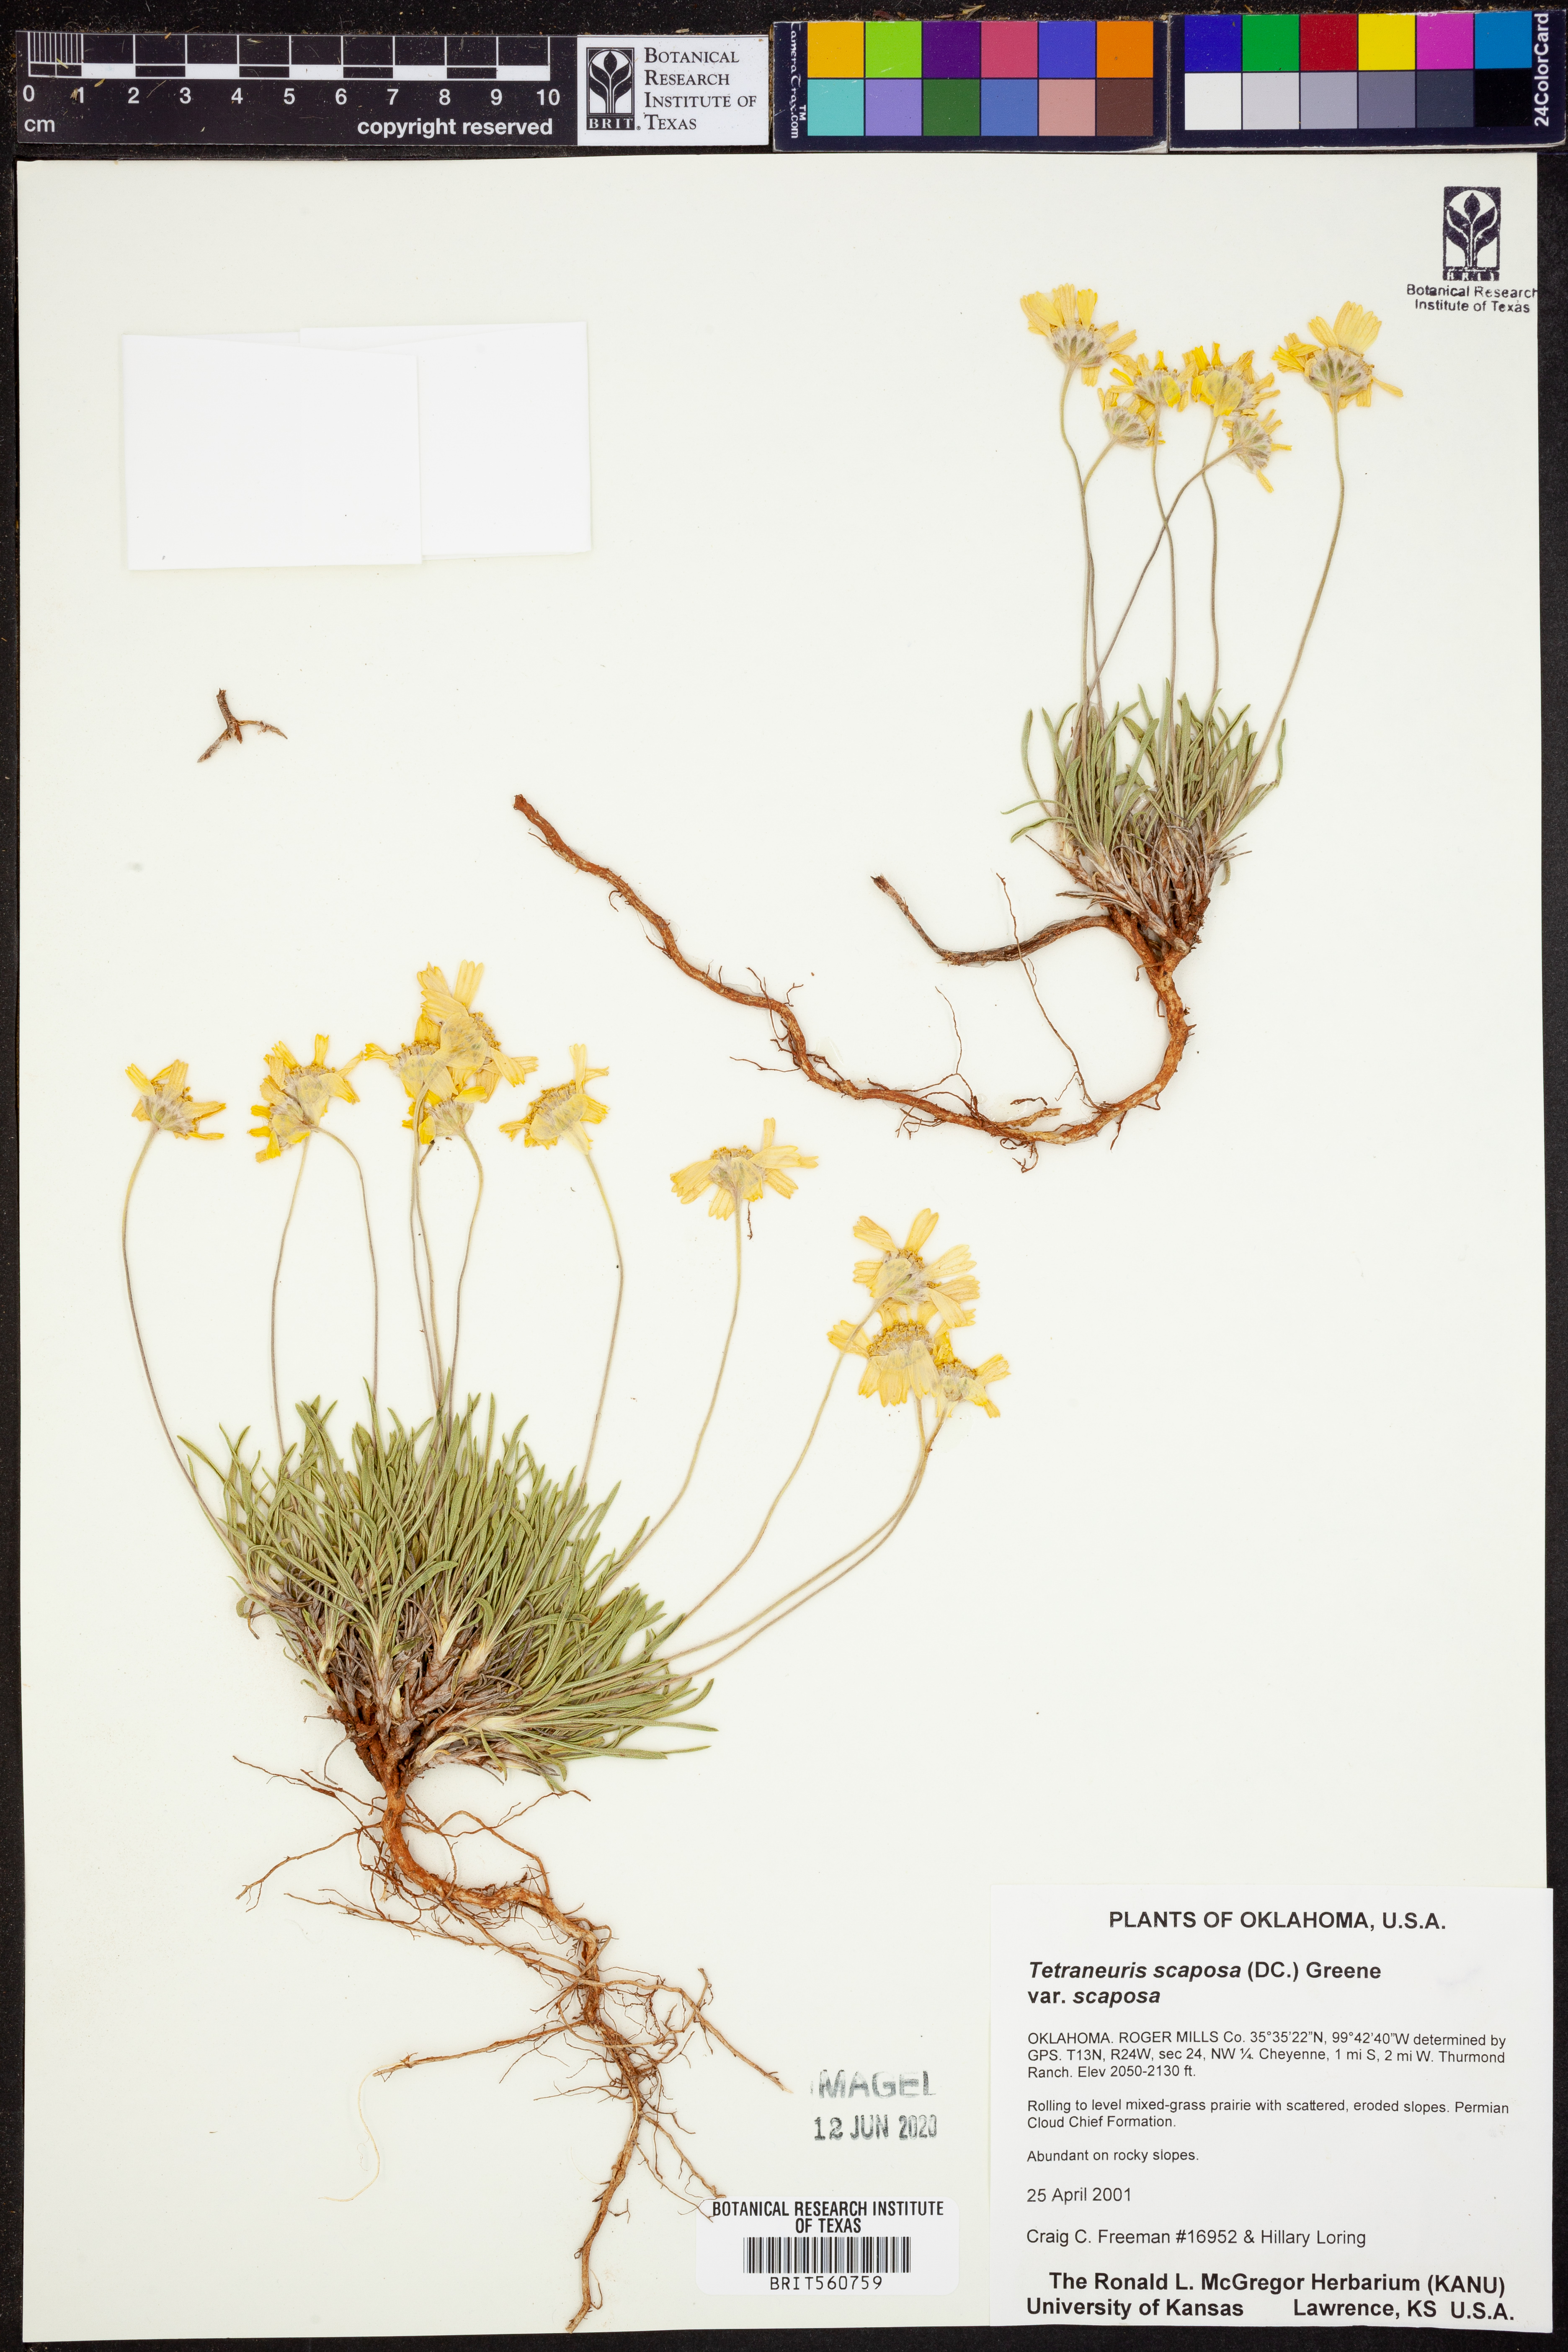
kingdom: Plantae
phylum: Tracheophyta
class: Magnoliopsida
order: Asterales
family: Asteraceae
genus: Tetraneuris
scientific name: Tetraneuris scaposa
